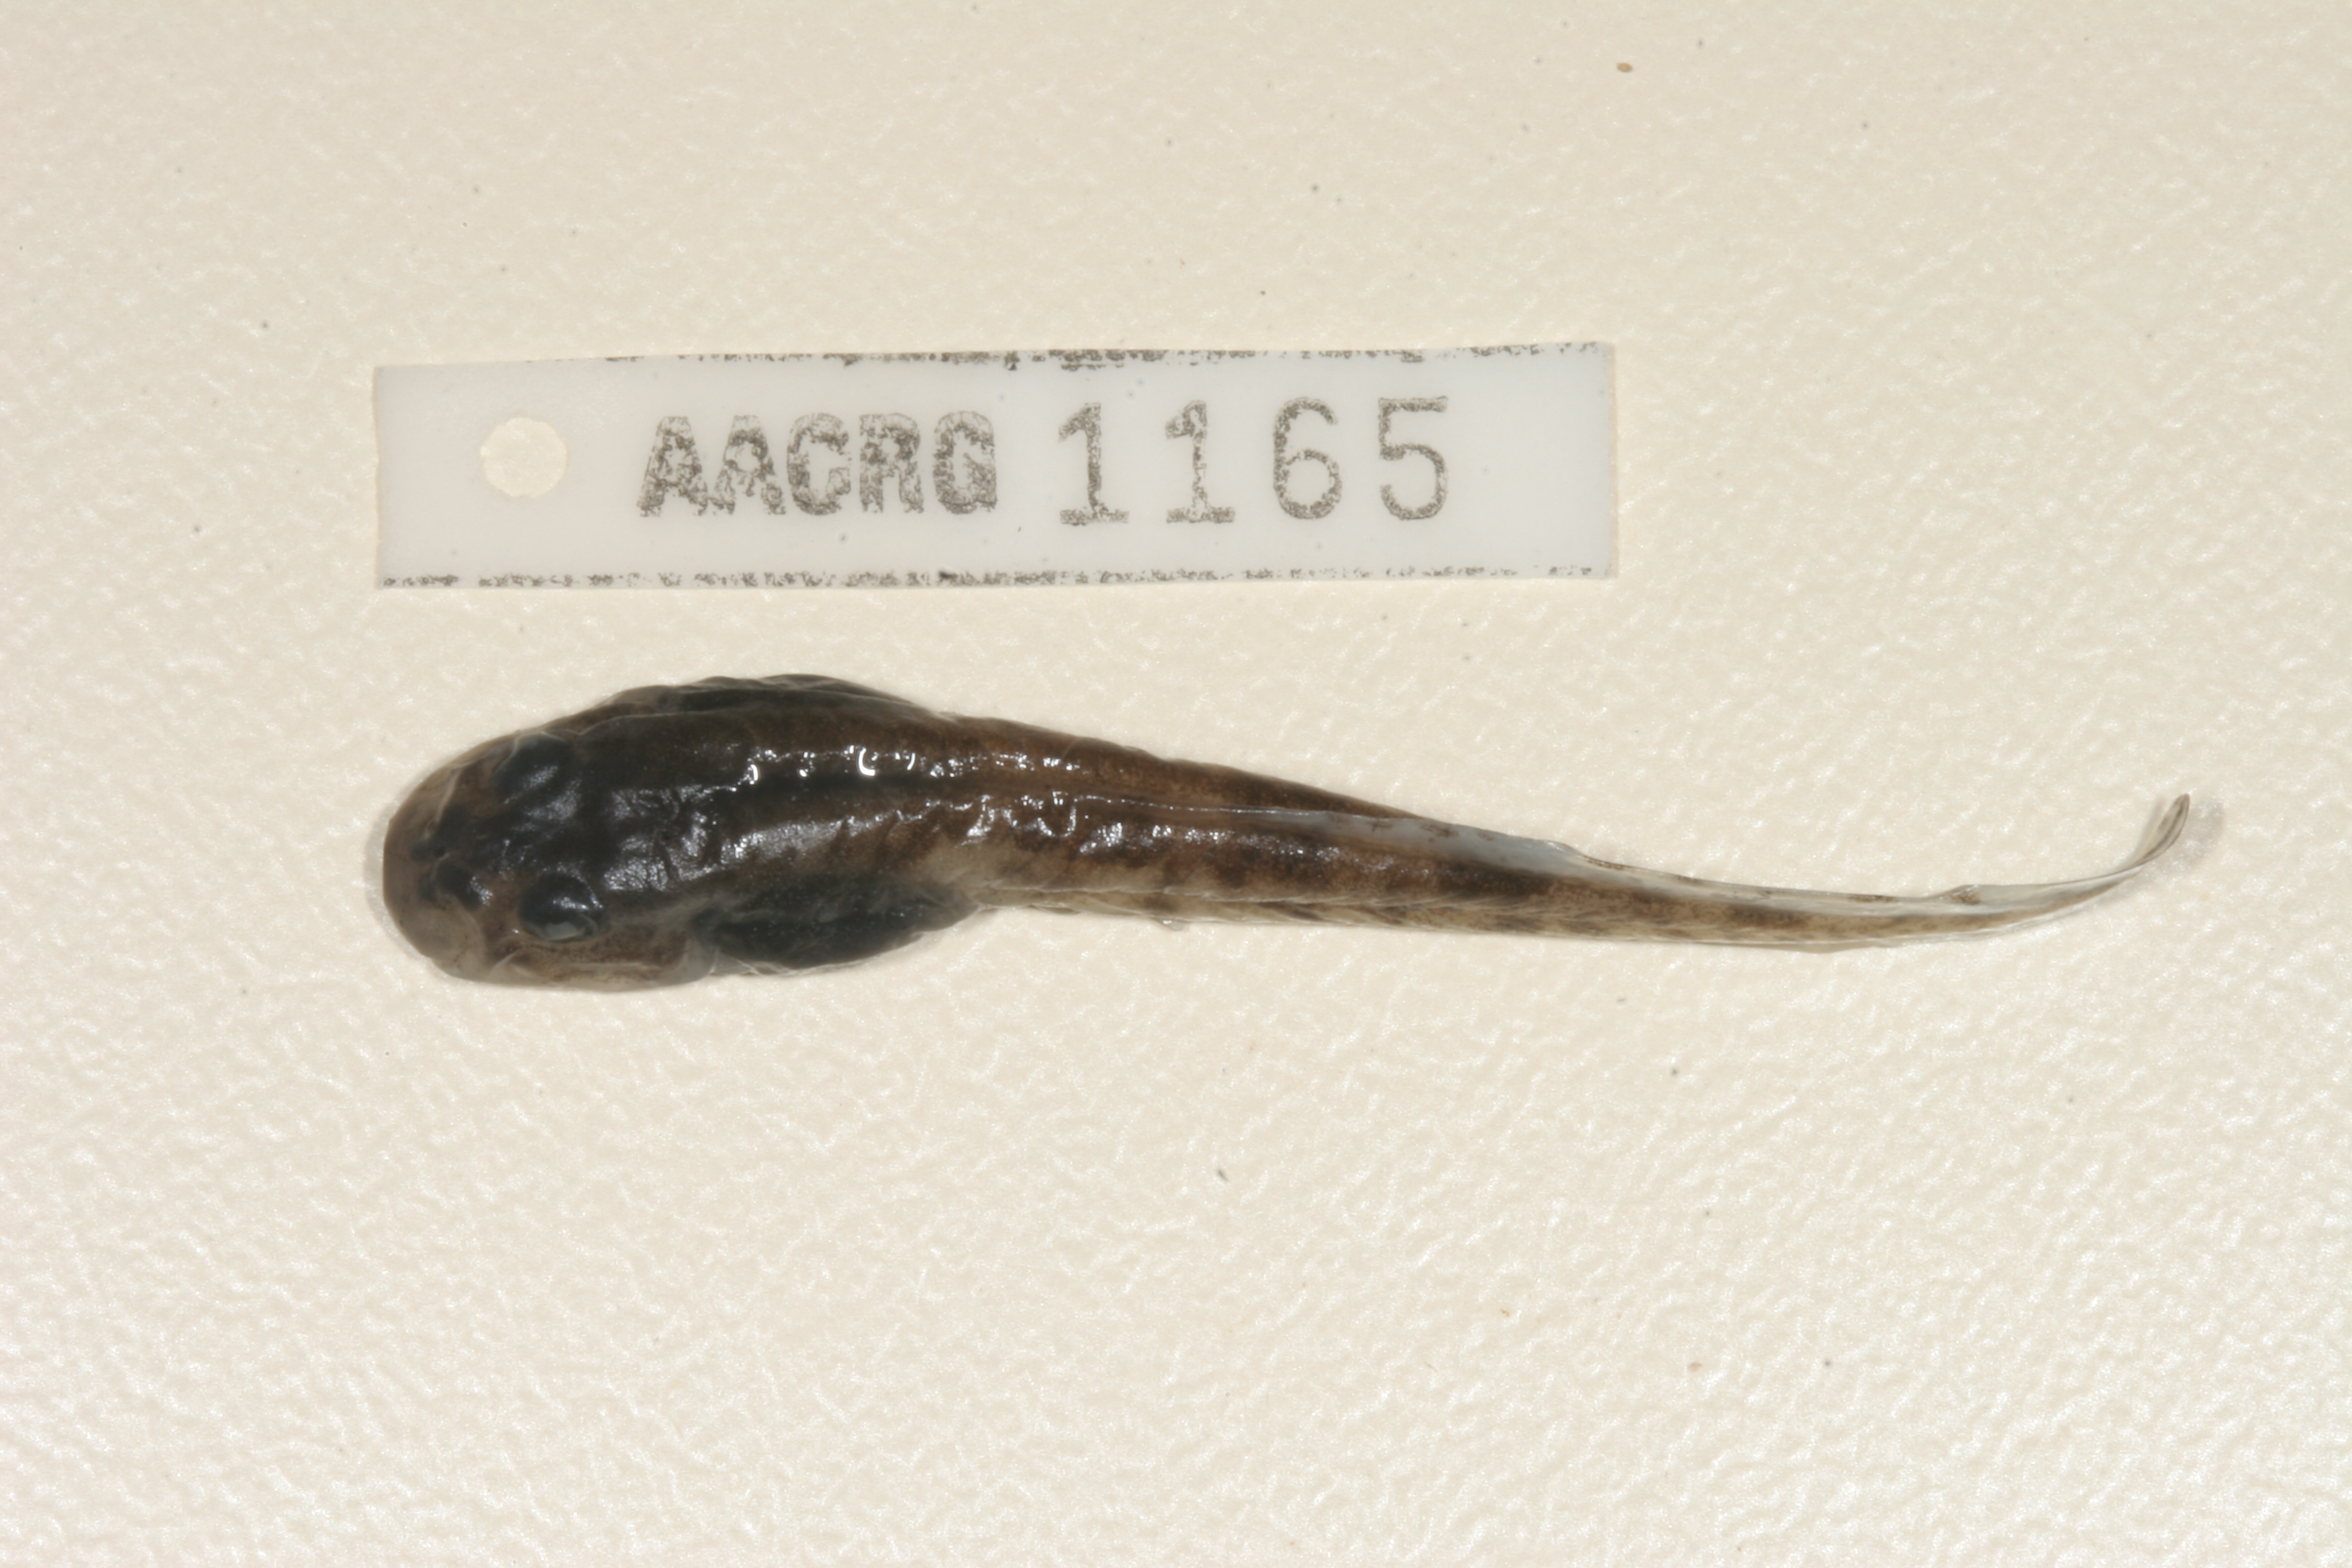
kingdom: Animalia
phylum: Chordata
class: Amphibia
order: Anura
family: Pyxicephalidae
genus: Amietia
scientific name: Amietia vertebralis
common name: Drakensberg stream frog
